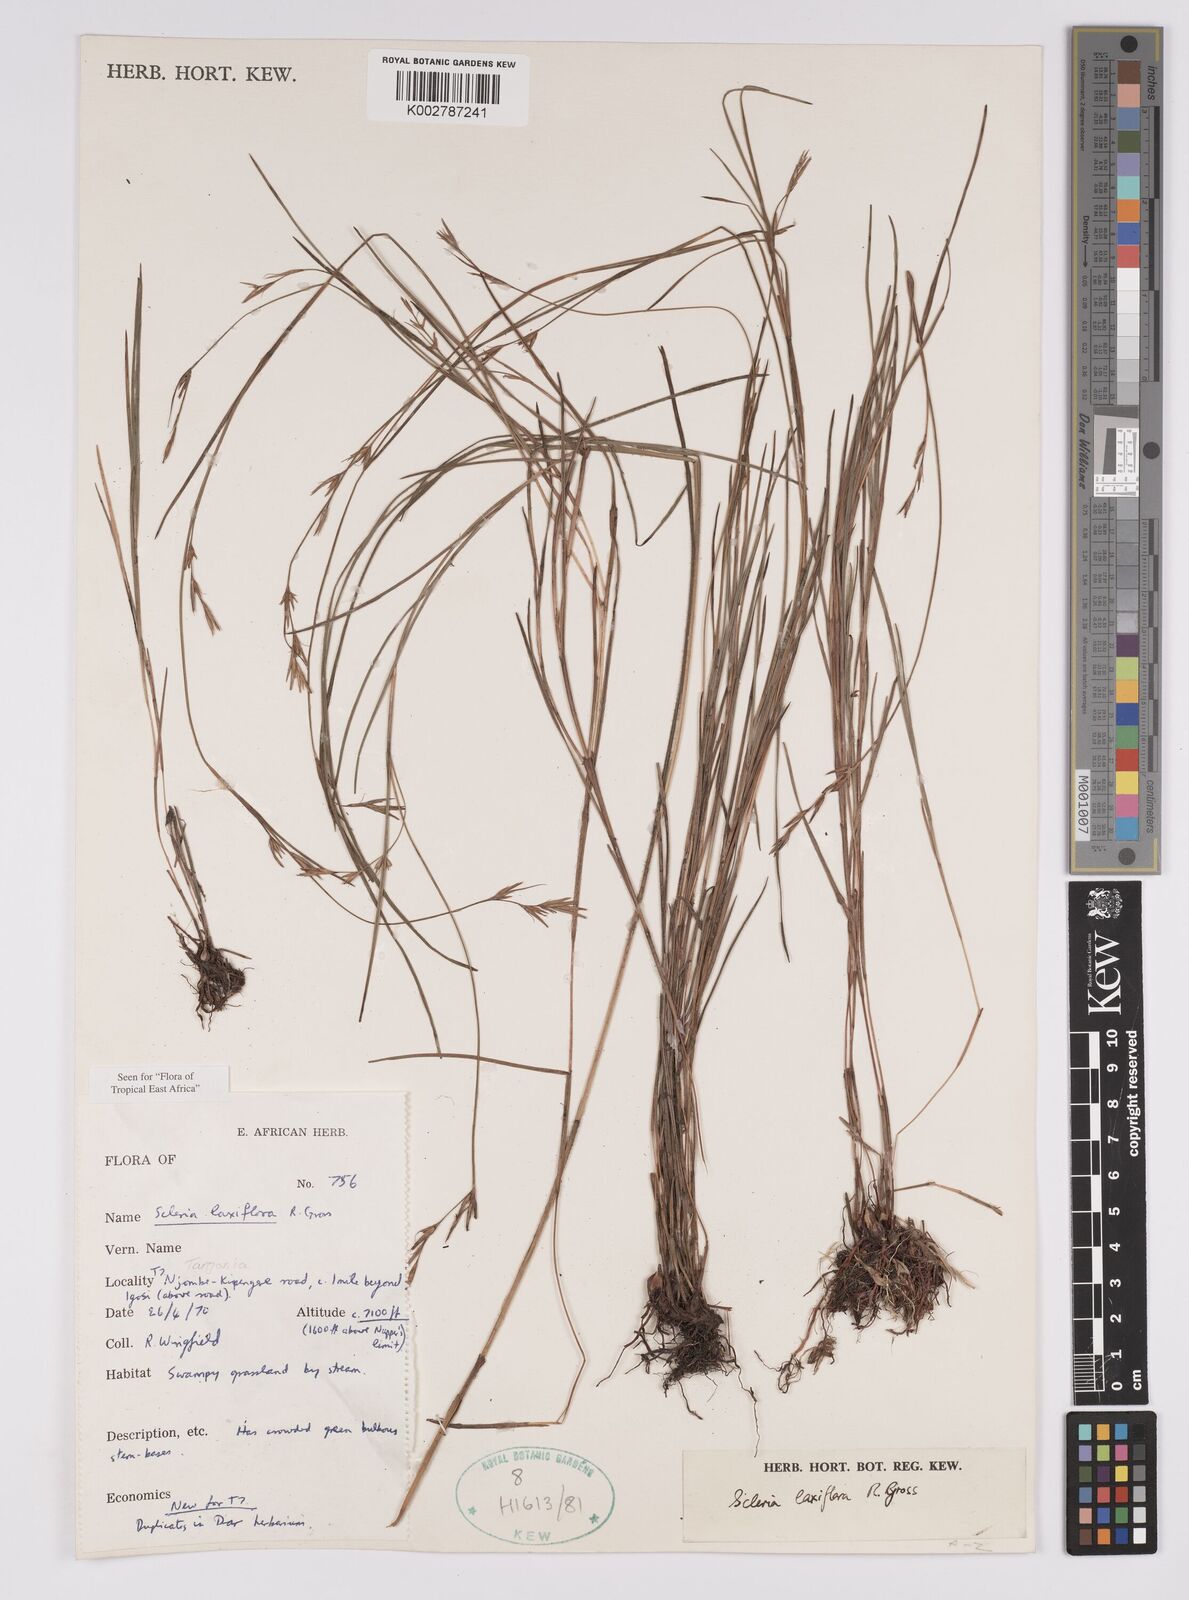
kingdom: Plantae
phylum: Tracheophyta
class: Liliopsida
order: Poales
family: Cyperaceae
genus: Scleria
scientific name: Scleria laxiflora
